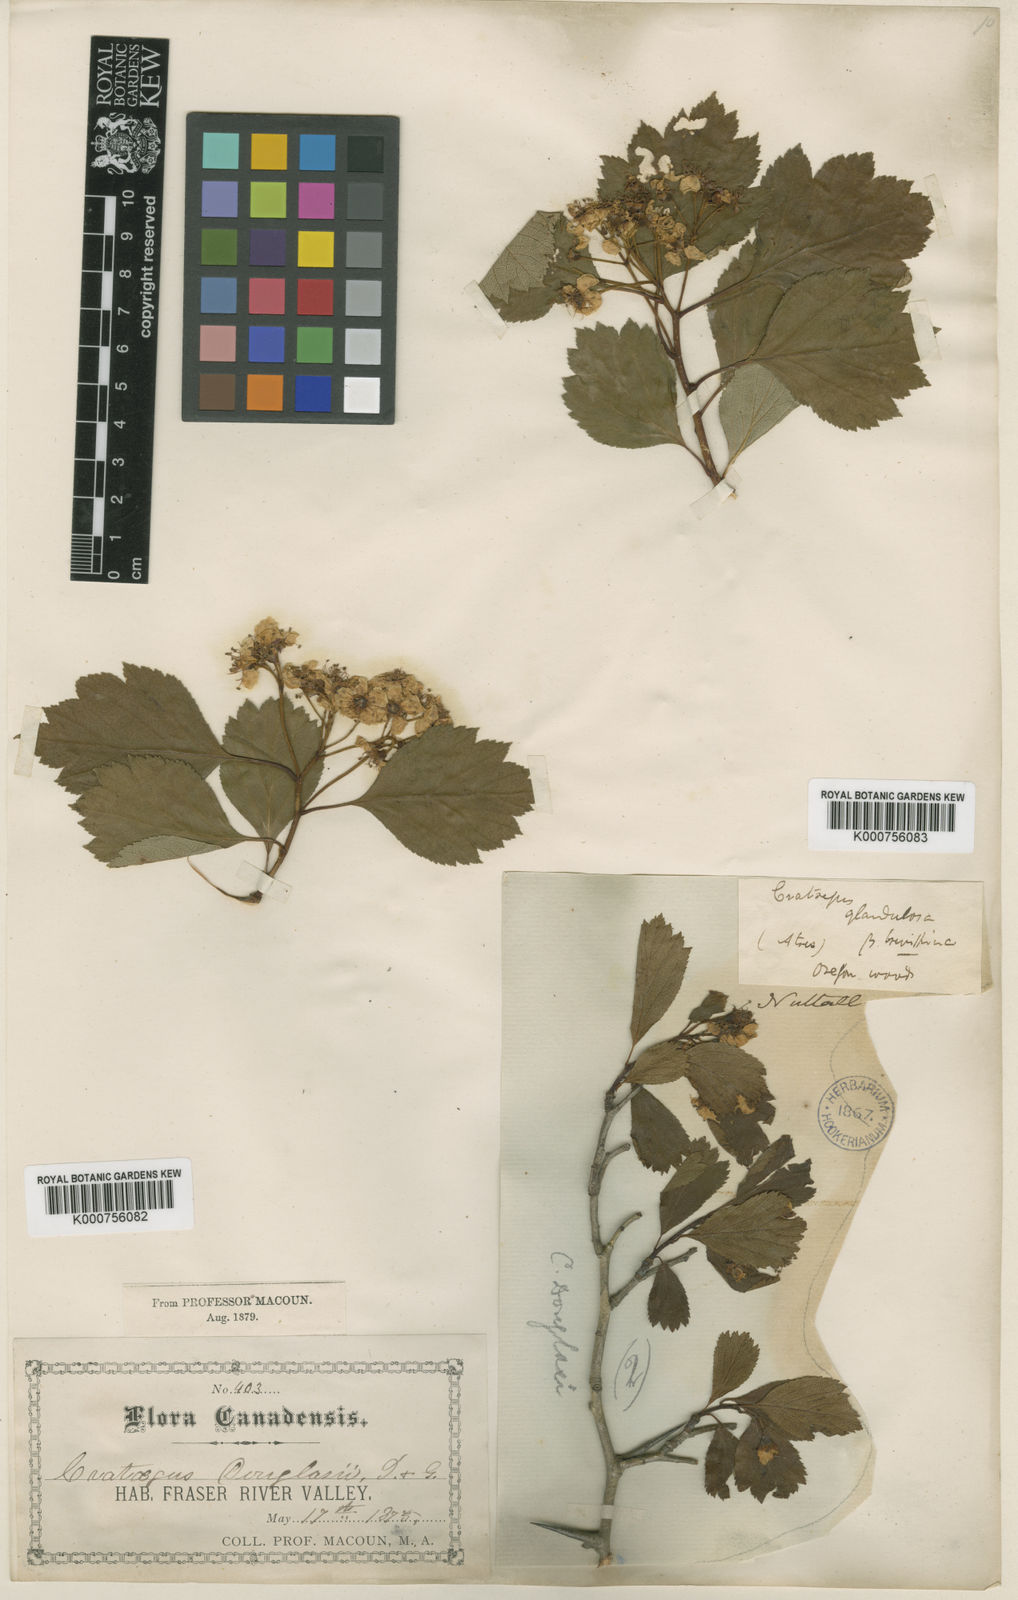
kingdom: Plantae
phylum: Tracheophyta
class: Magnoliopsida
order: Rosales
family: Rosaceae
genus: Crataegus
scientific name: Crataegus macracantha
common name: Large-thorn hawthorn
